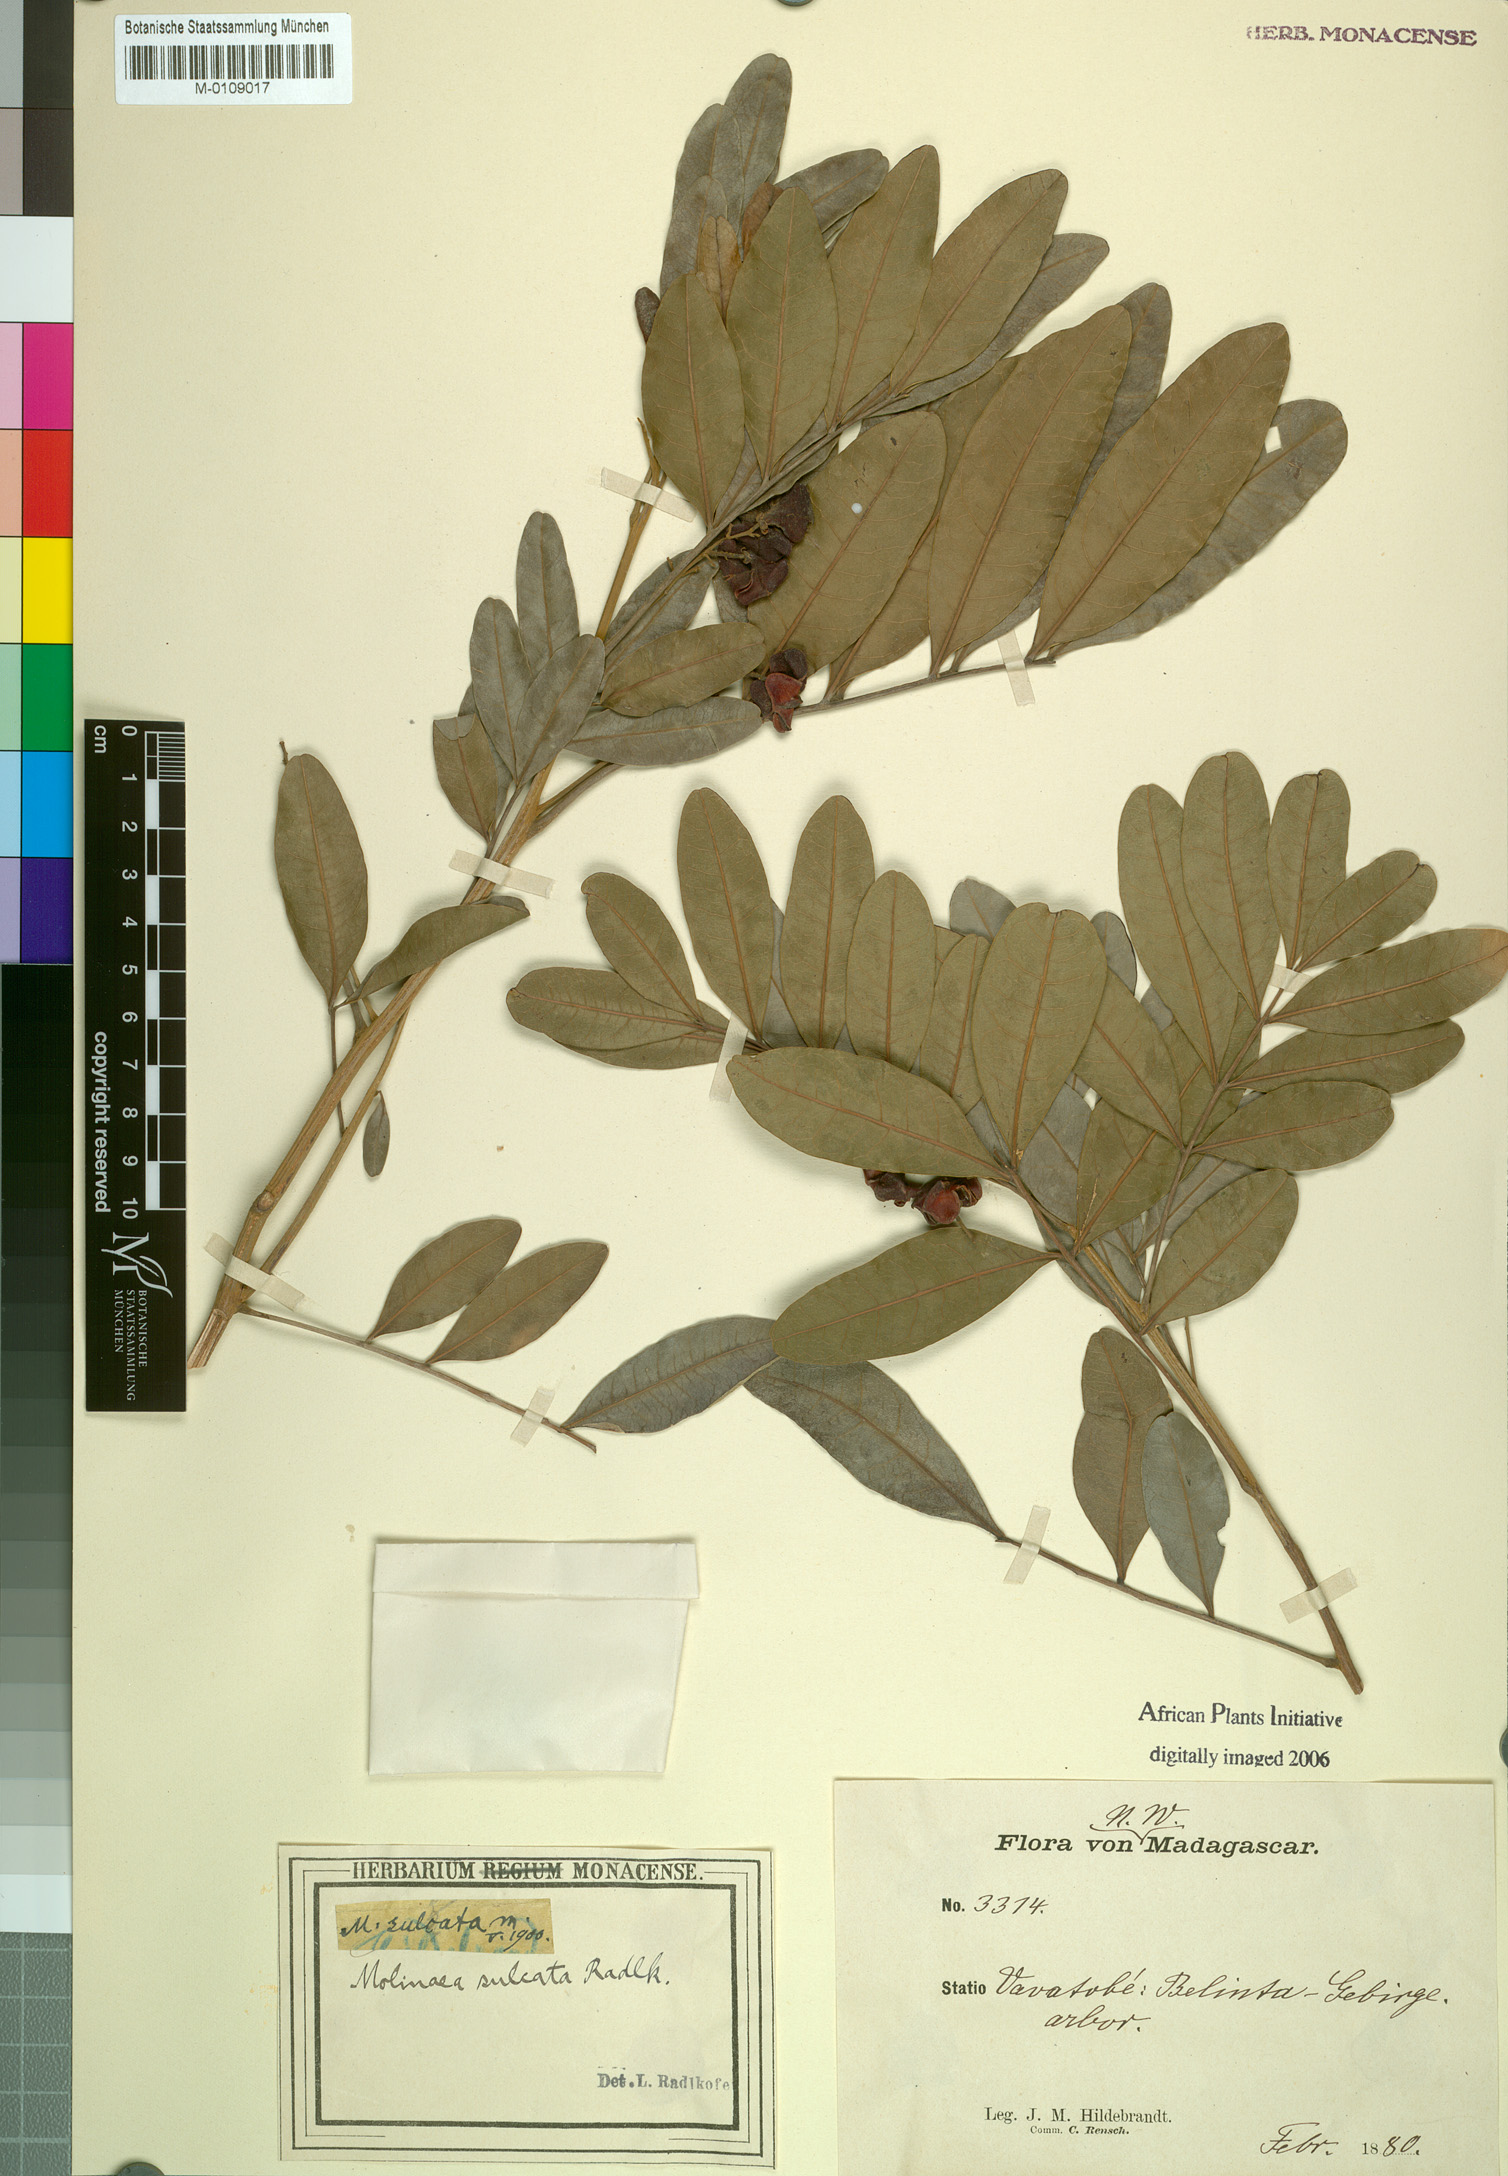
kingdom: Plantae
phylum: Tracheophyta
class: Magnoliopsida
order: Sapindales
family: Sapindaceae
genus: Molinaea
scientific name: Molinaea retusa
